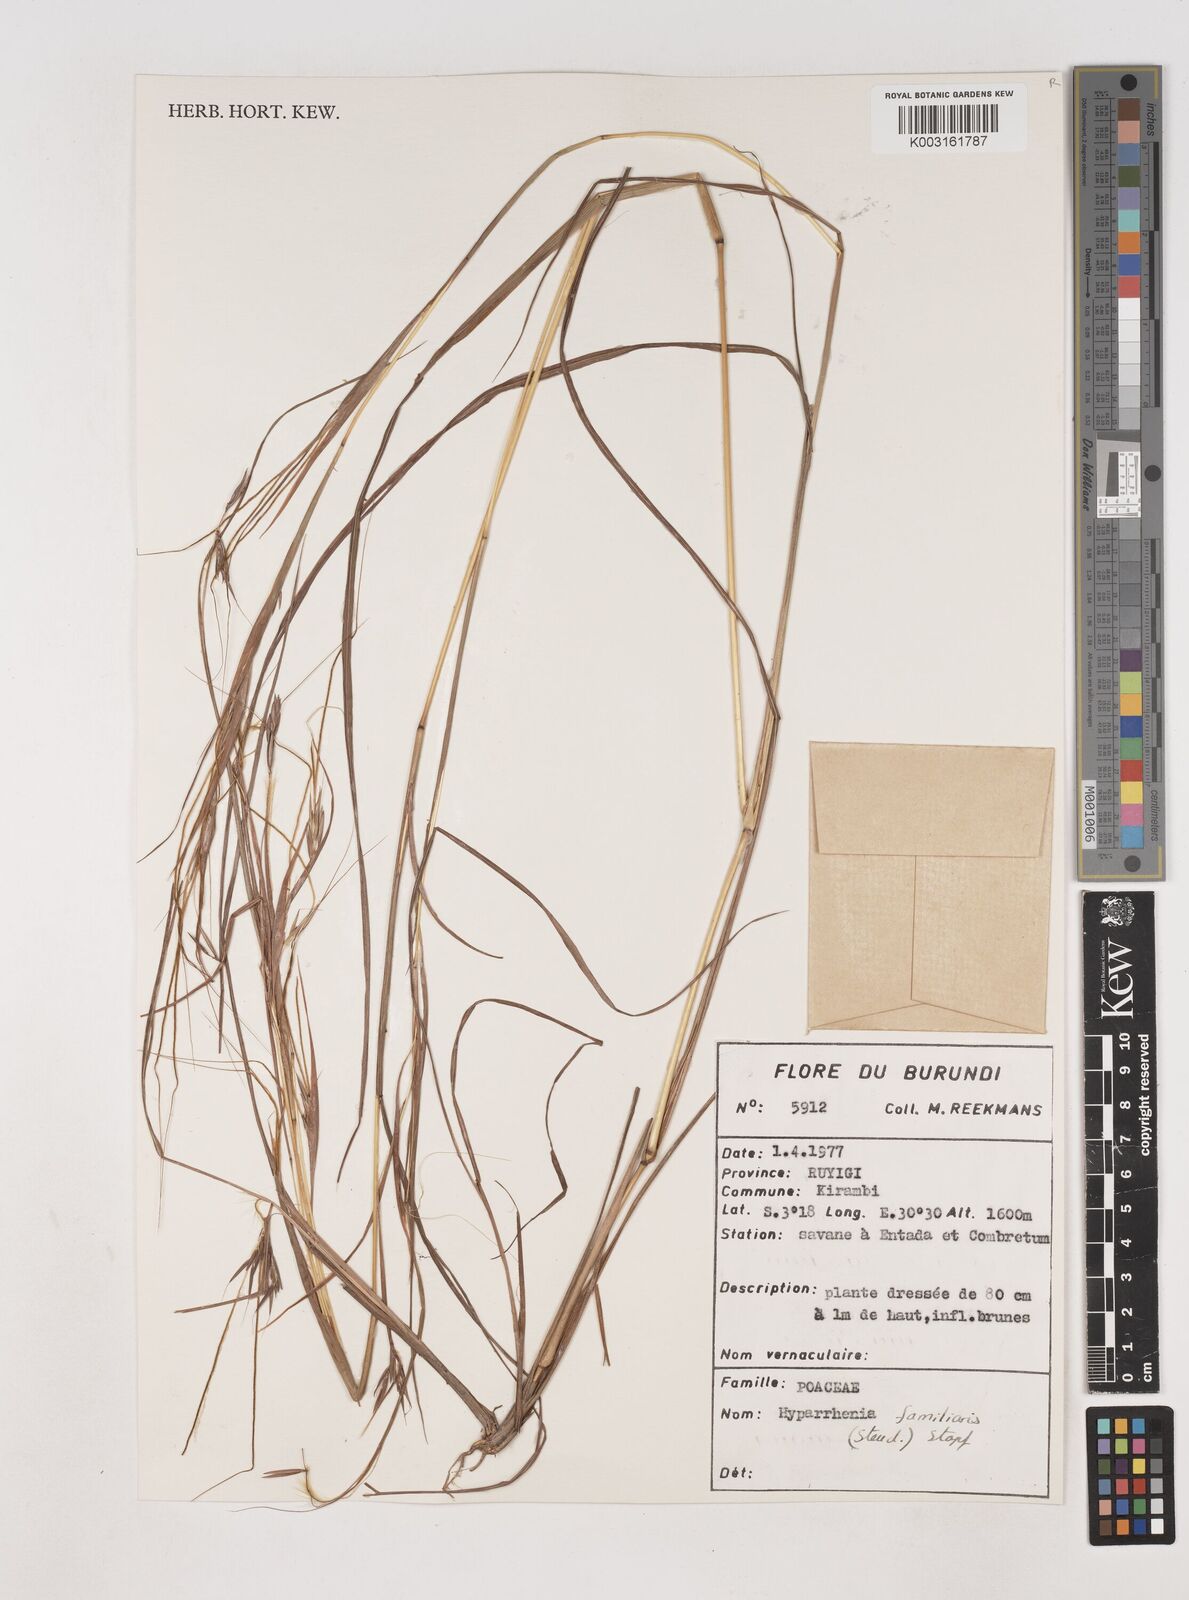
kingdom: Plantae
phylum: Tracheophyta
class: Liliopsida
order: Poales
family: Poaceae
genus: Hyparrhenia
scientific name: Hyparrhenia familiaris
